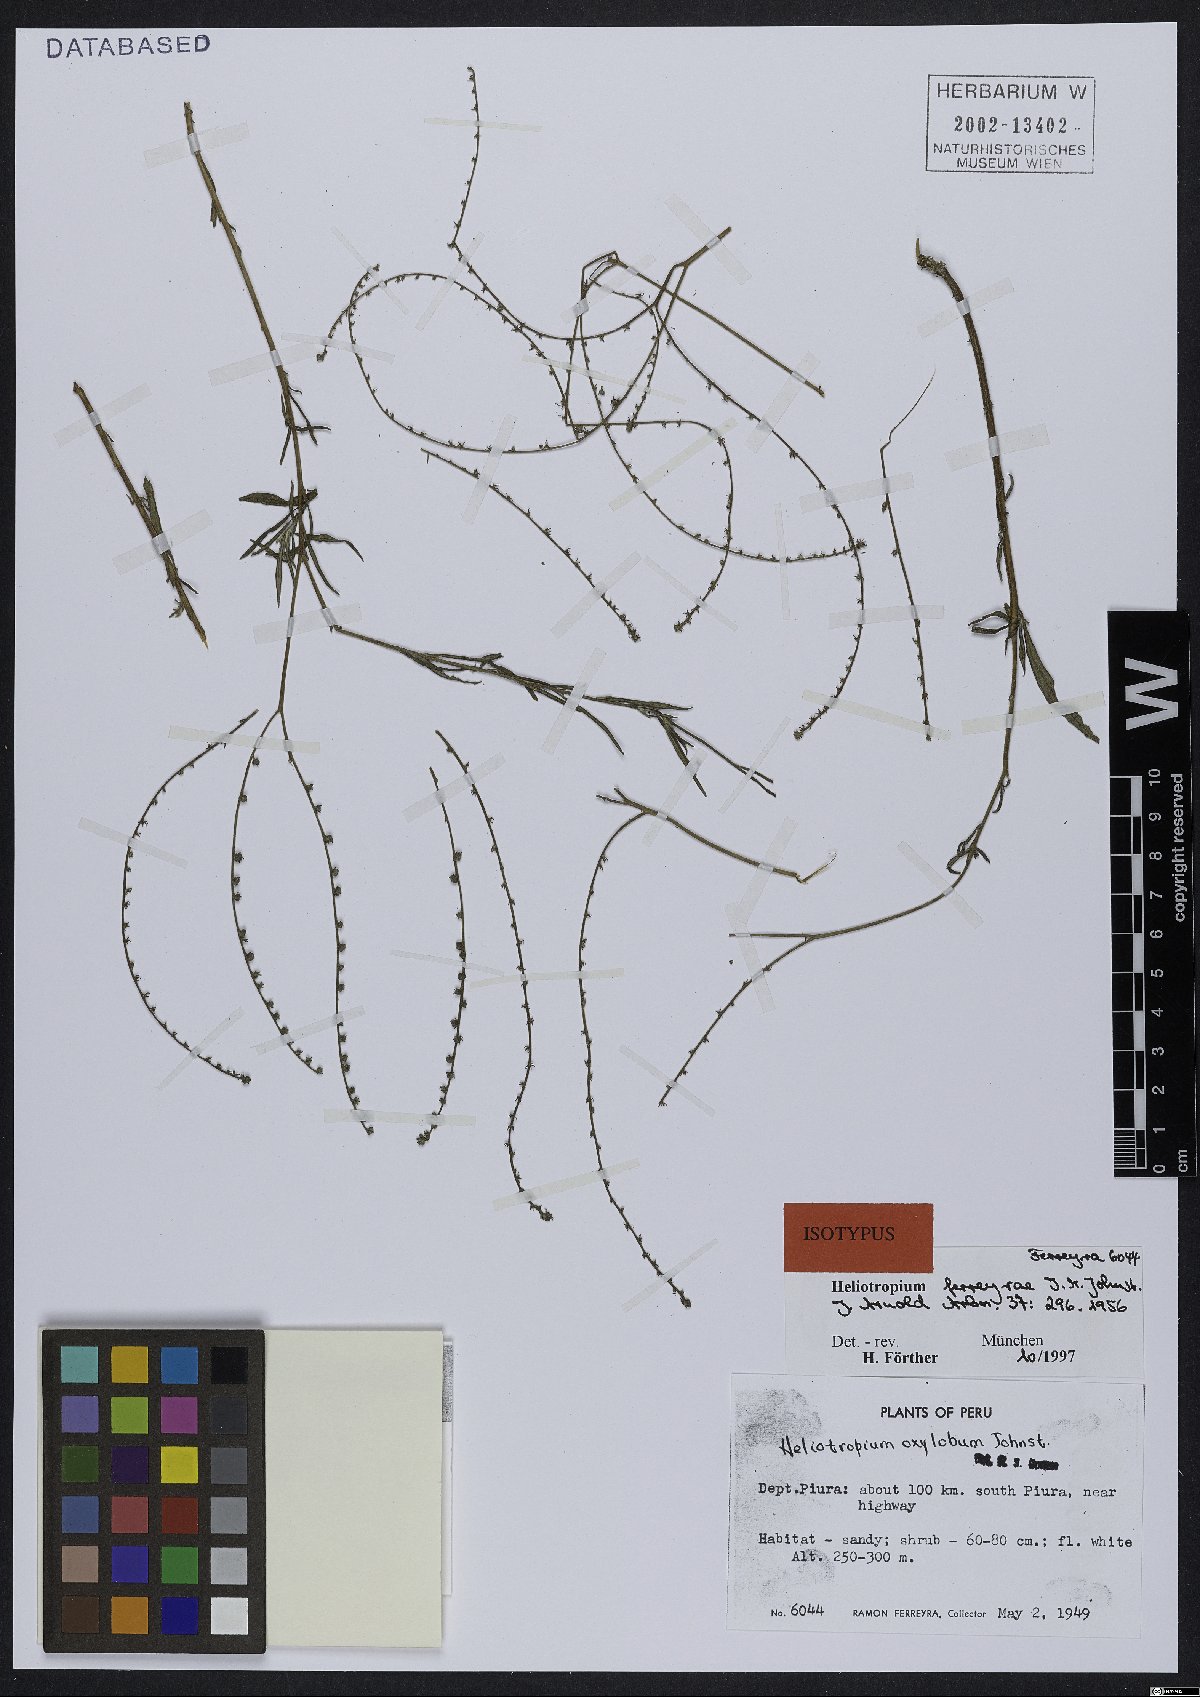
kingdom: Plantae
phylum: Tracheophyta
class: Magnoliopsida
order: Boraginales
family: Heliotropiaceae
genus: Euploca
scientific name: Euploca ferreyrae
